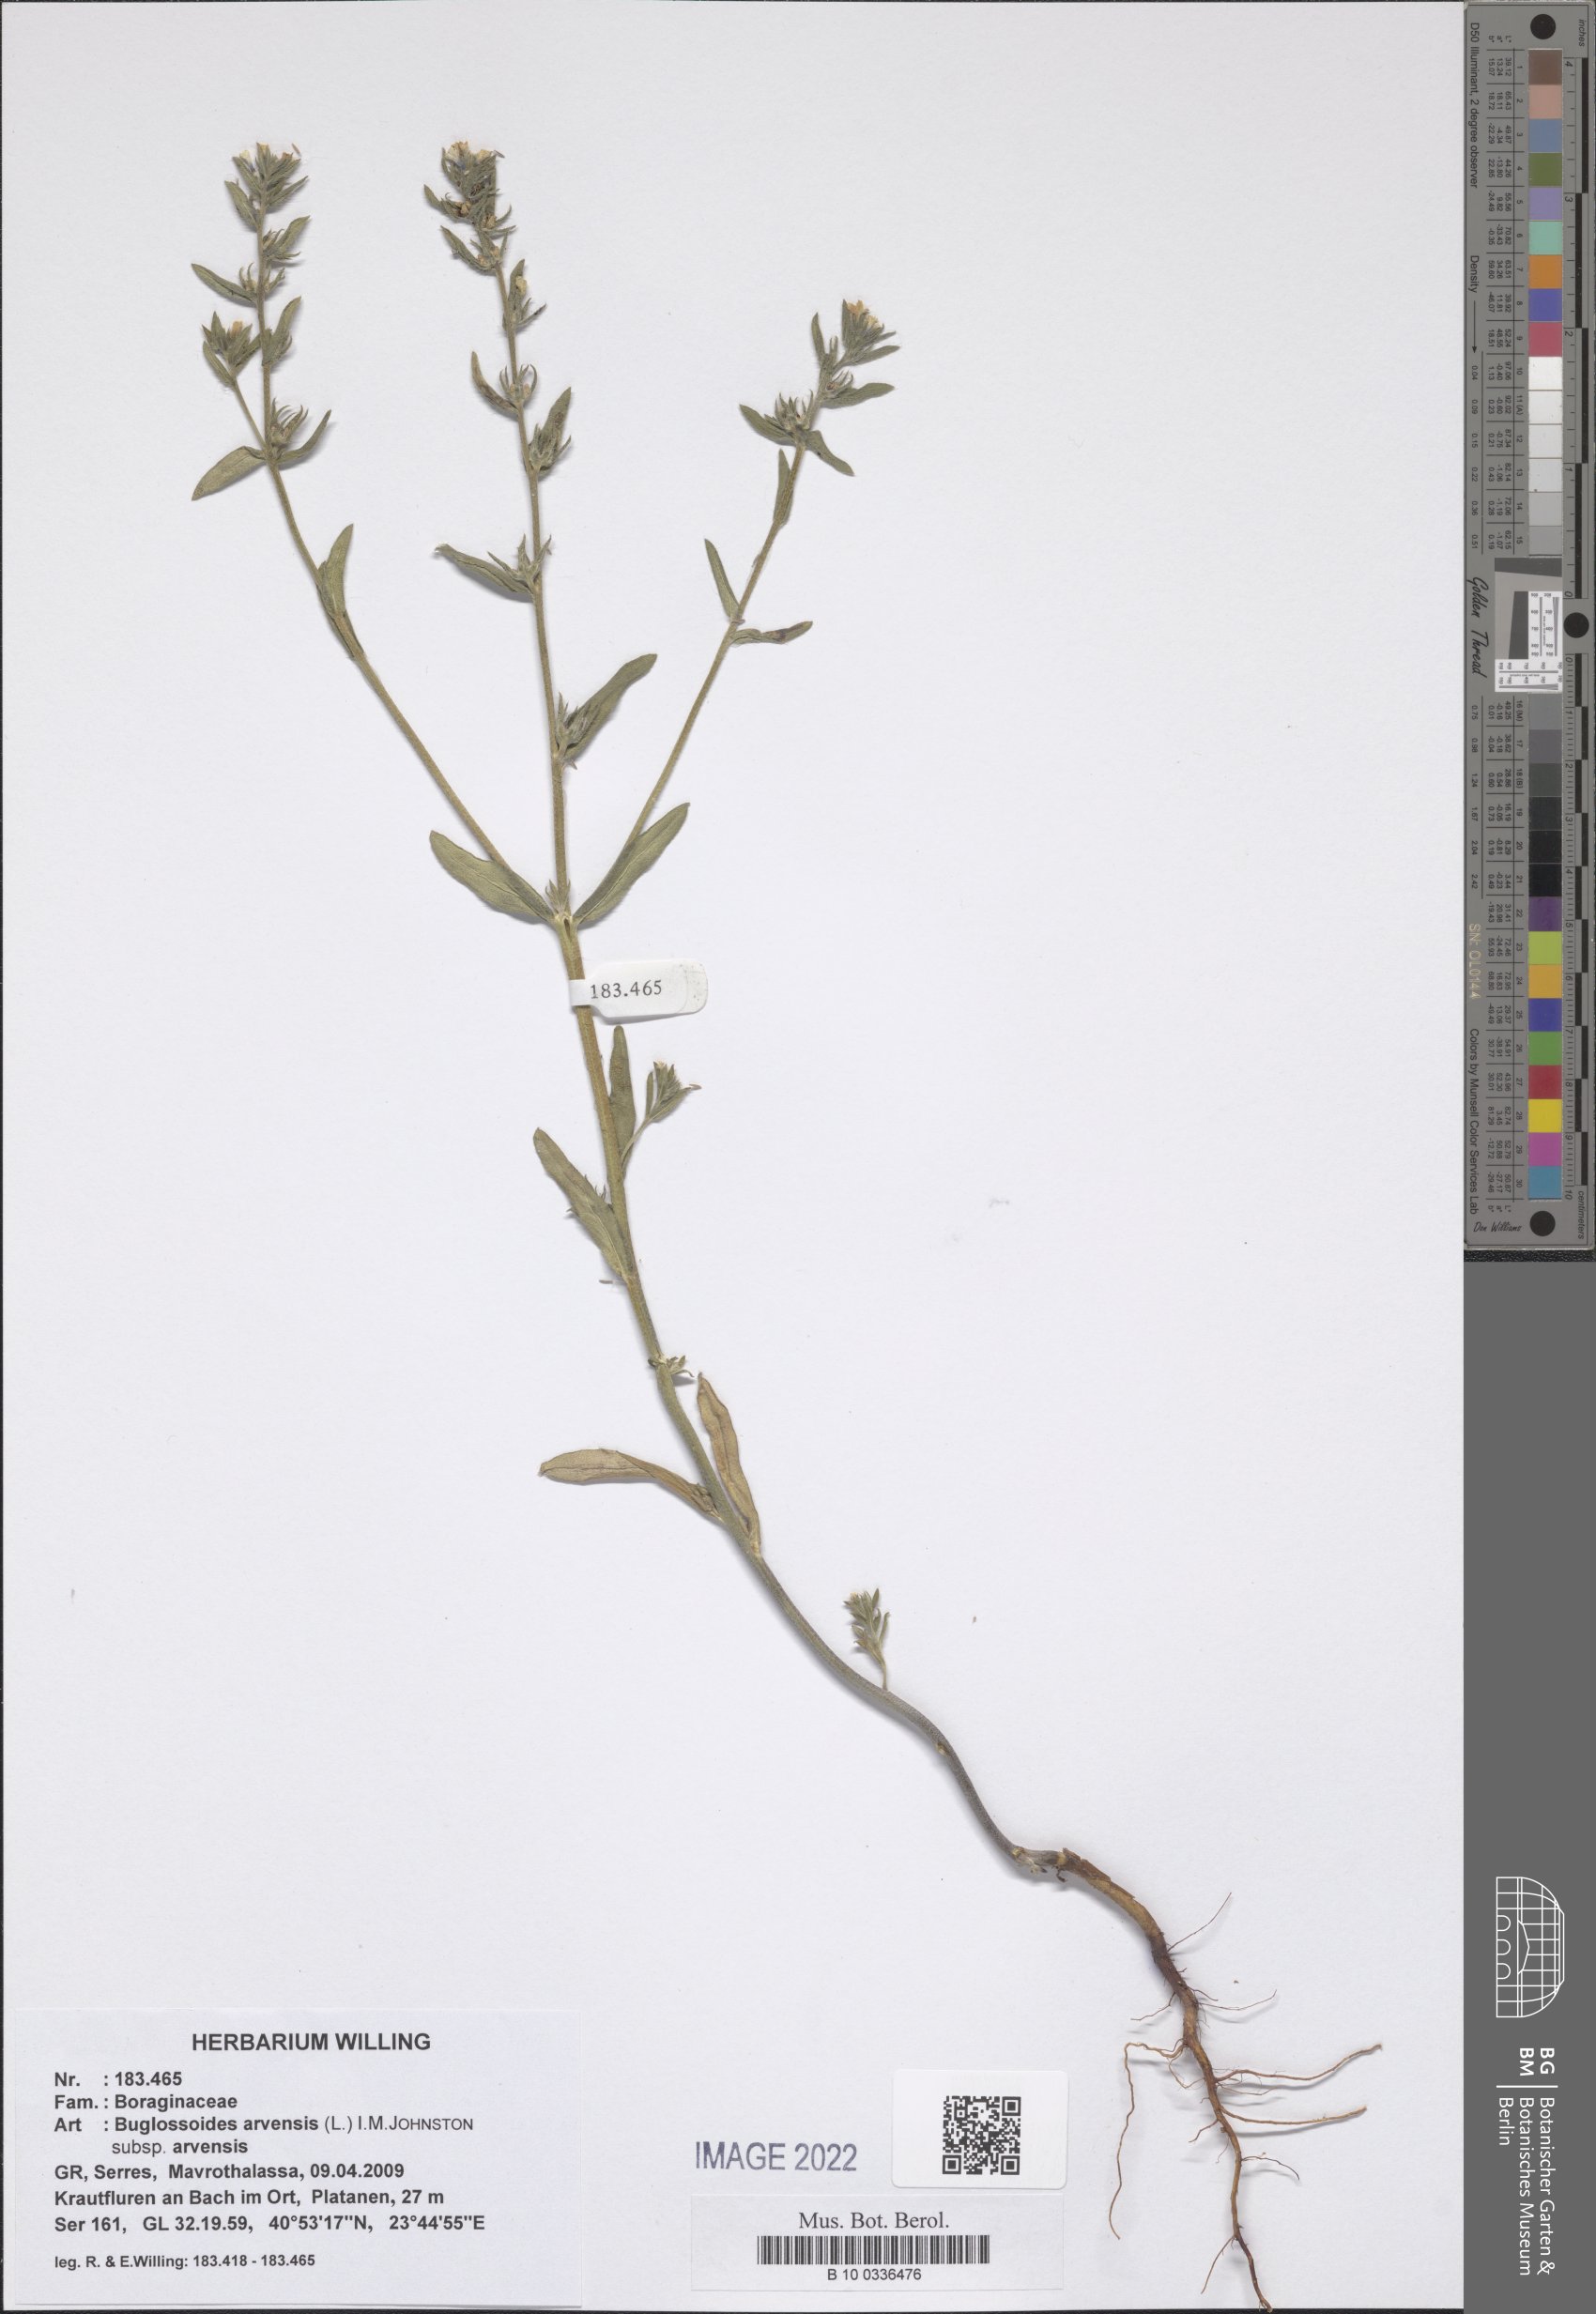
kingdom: Plantae
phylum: Tracheophyta
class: Magnoliopsida
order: Boraginales
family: Boraginaceae
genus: Buglossoides
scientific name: Buglossoides arvensis
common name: Corn gromwell
